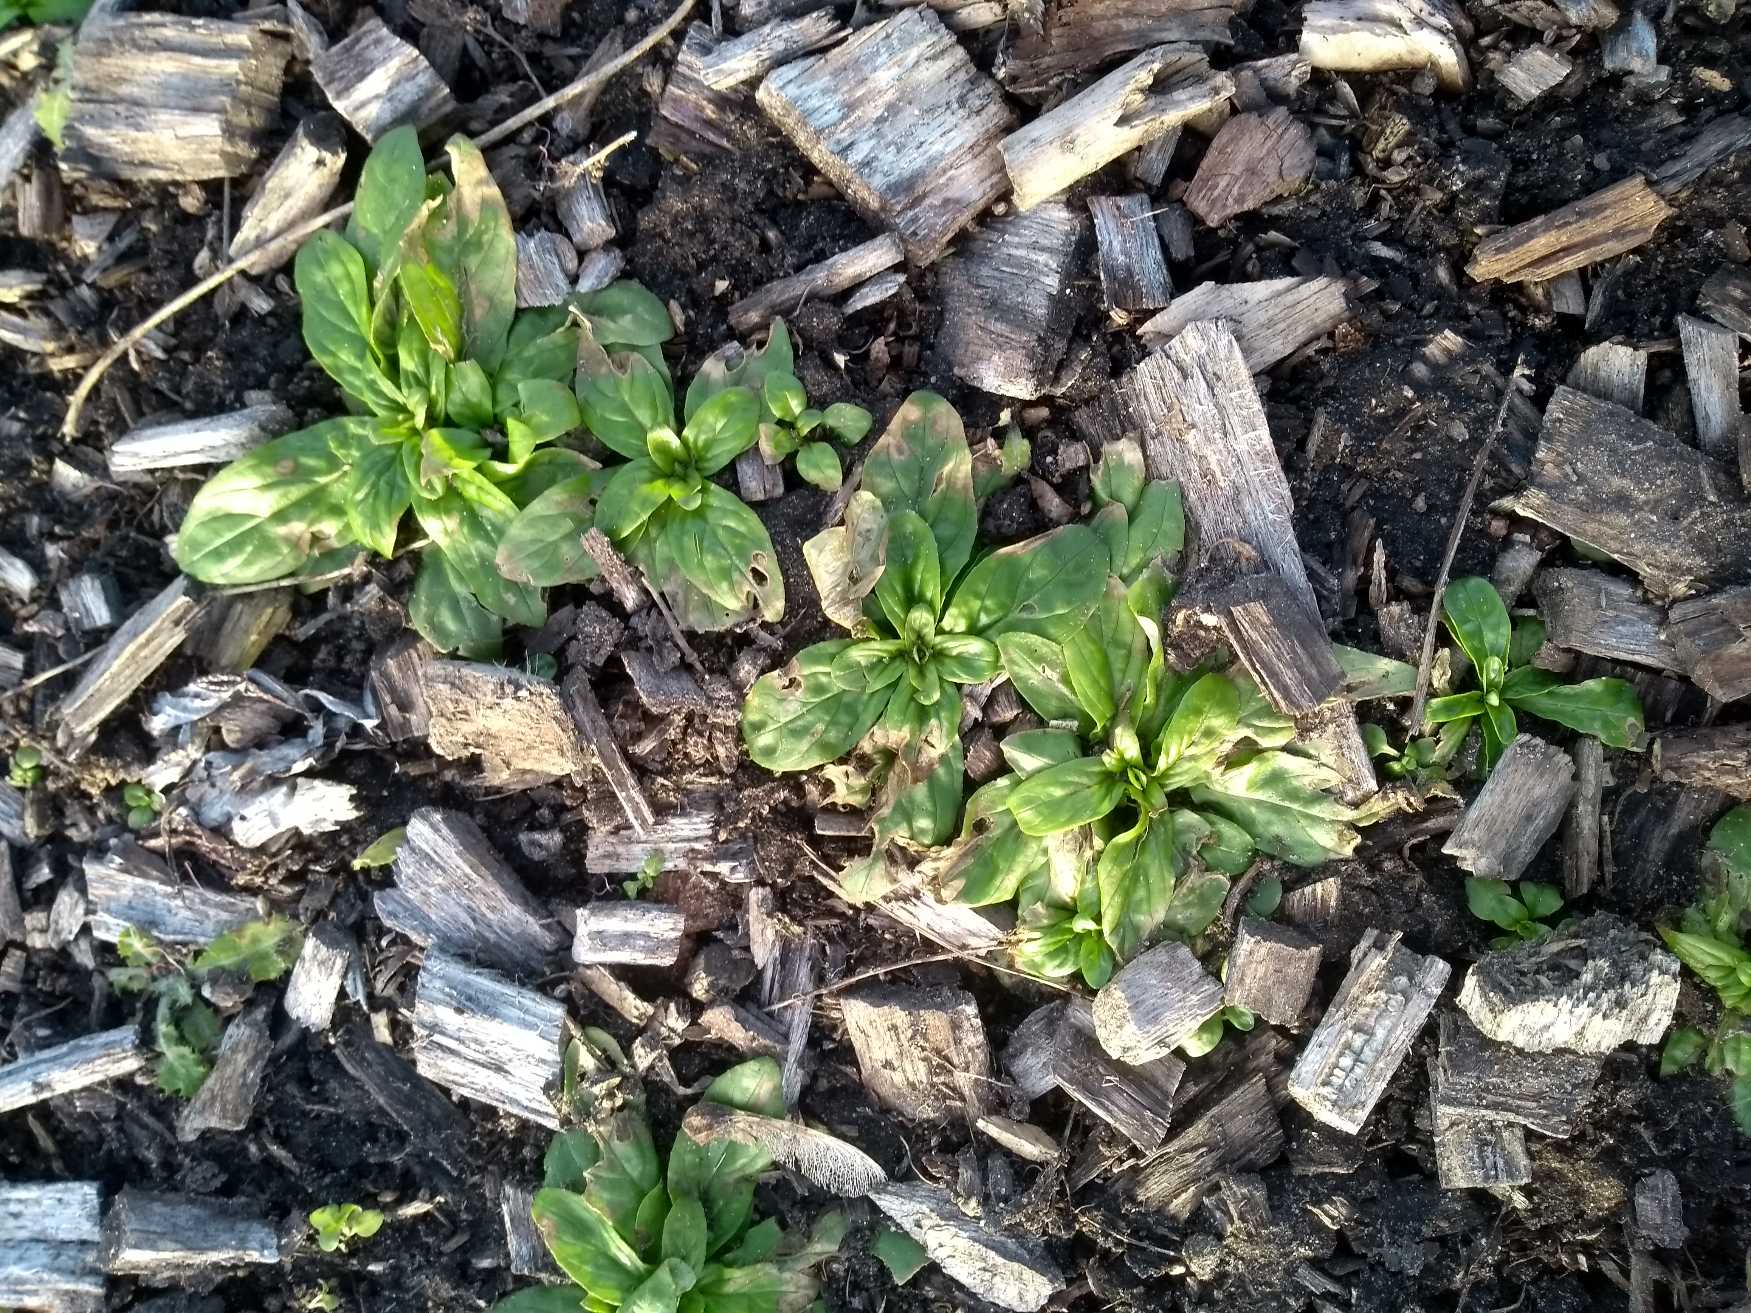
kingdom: Plantae
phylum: Tracheophyta
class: Magnoliopsida
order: Myrtales
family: Onagraceae
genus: Epilobium
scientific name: Epilobium
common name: Dueurtslægten
